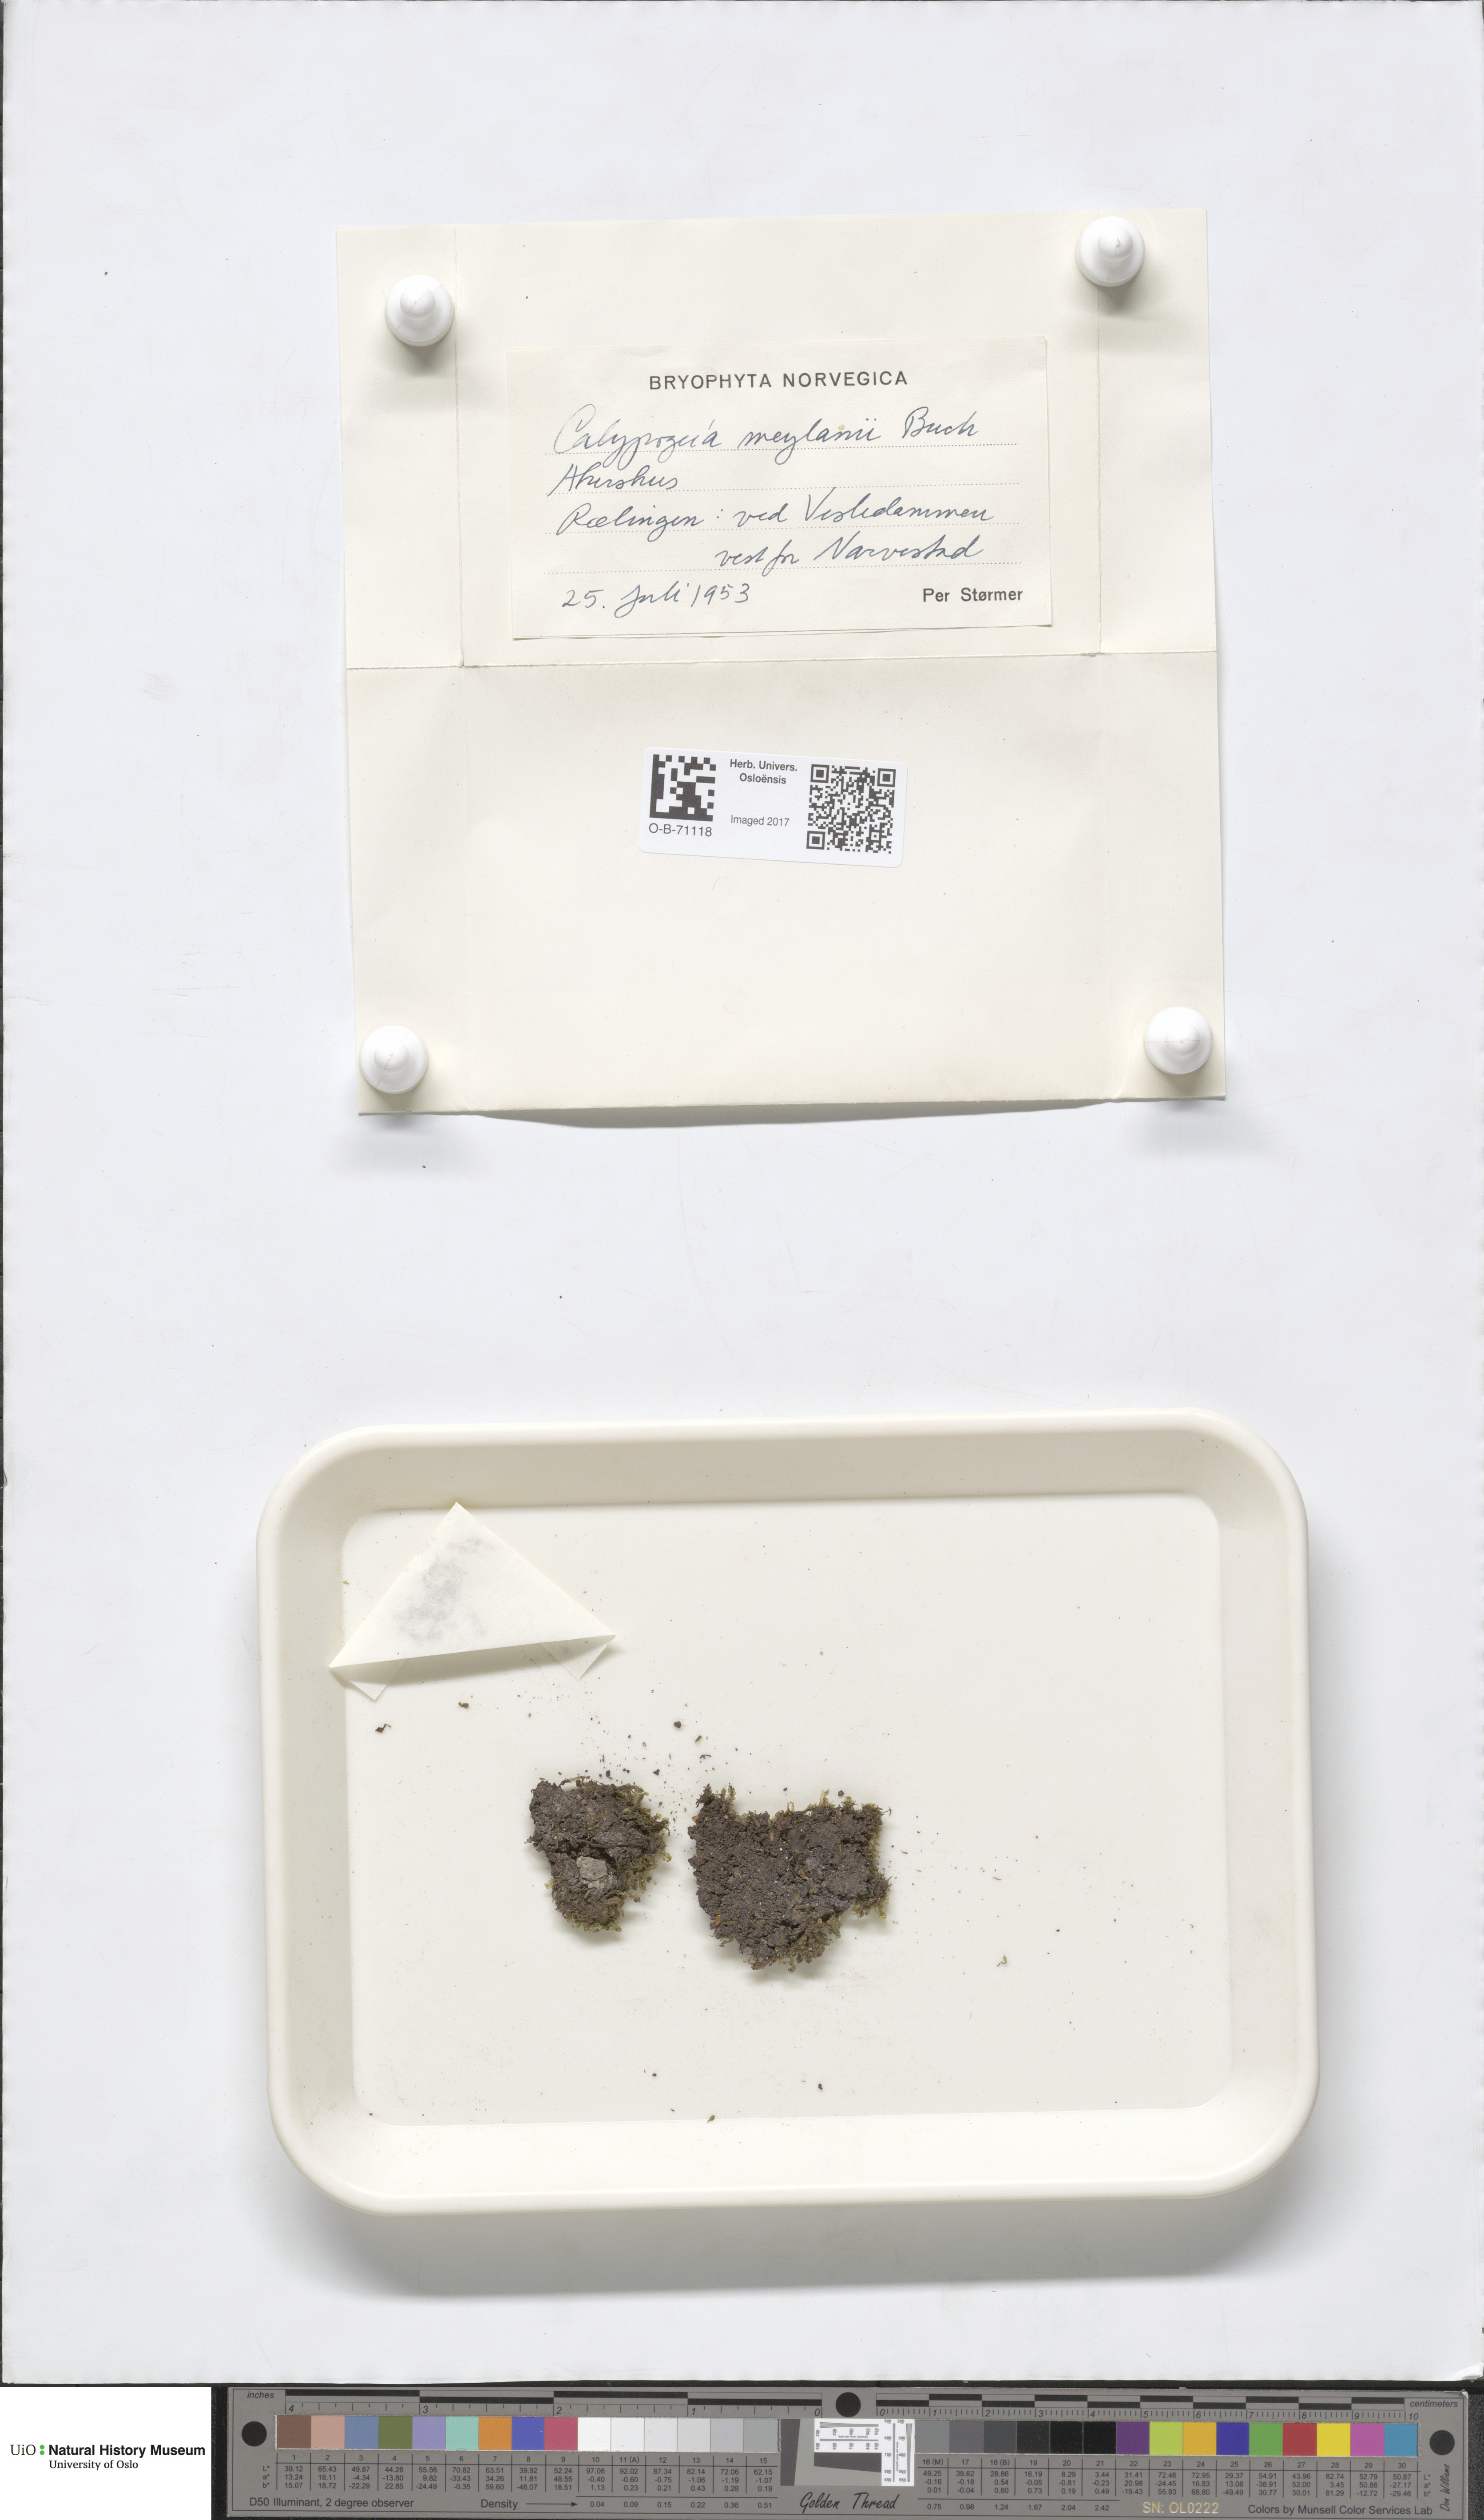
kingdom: Plantae
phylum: Marchantiophyta
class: Jungermanniopsida
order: Jungermanniales
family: Calypogeiaceae
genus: Calypogeia
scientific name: Calypogeia integristipula
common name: Meylan s pouchwort
